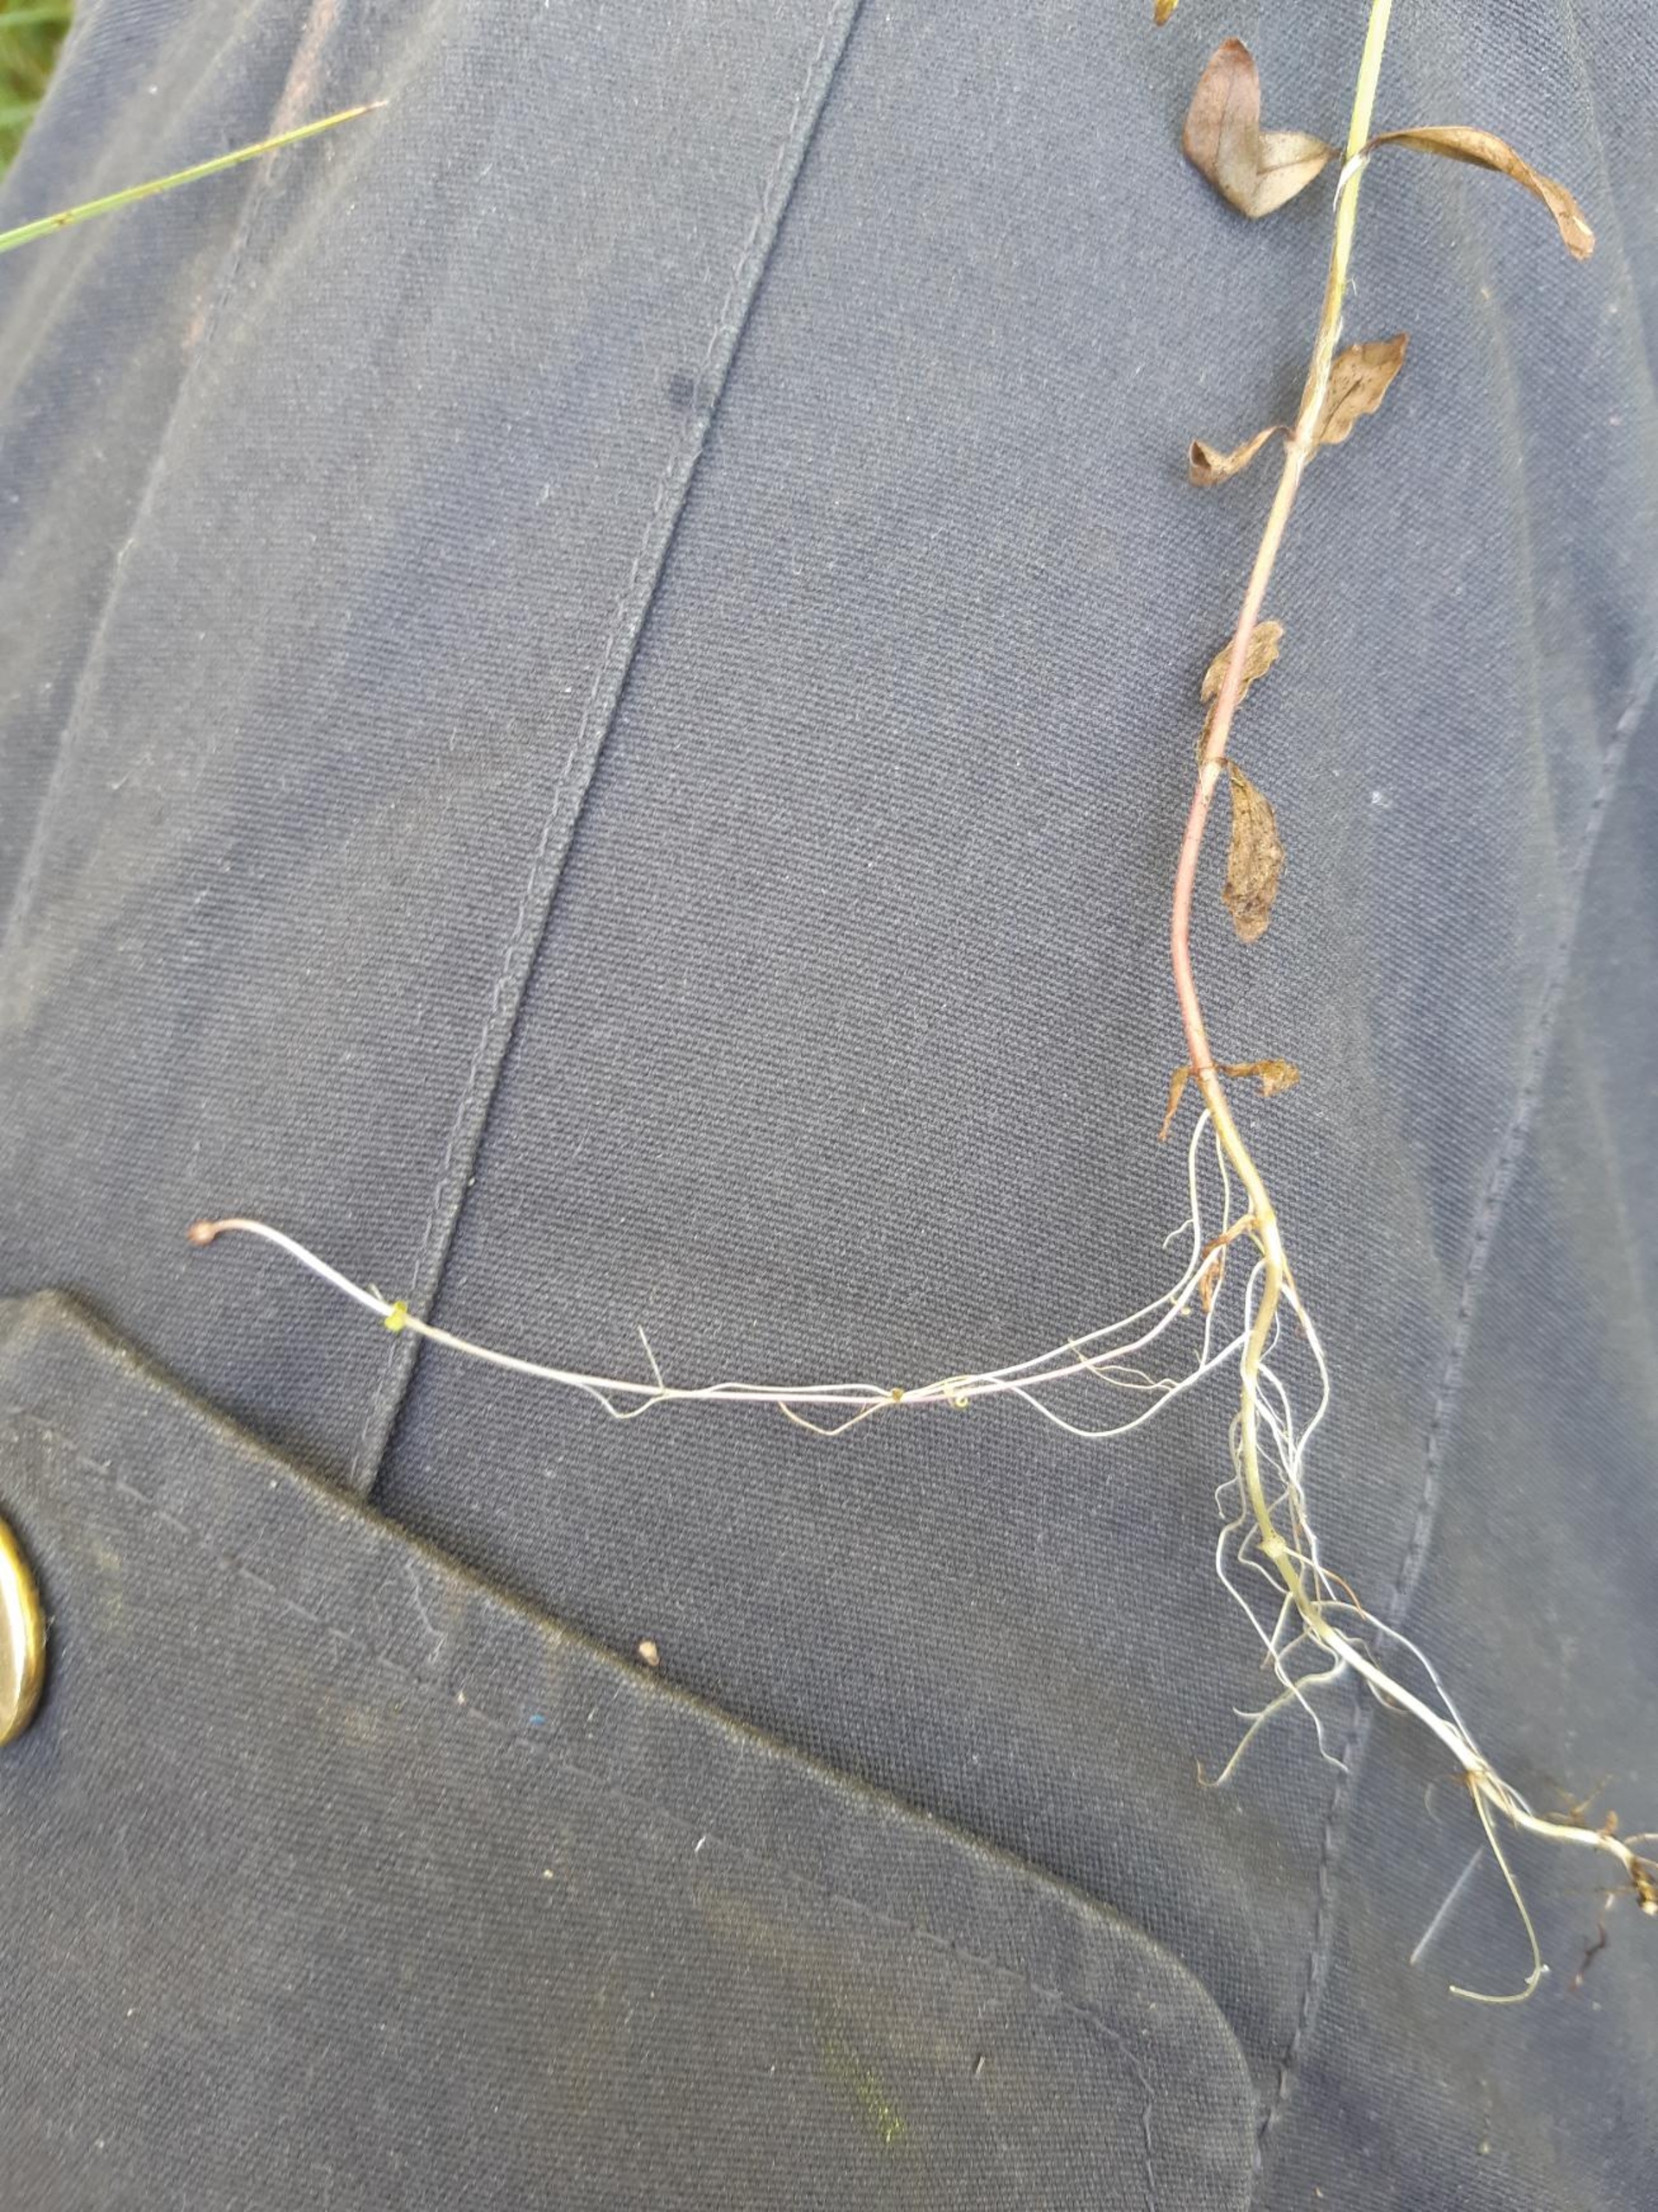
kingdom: Plantae
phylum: Tracheophyta
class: Magnoliopsida
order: Myrtales
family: Onagraceae
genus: Epilobium
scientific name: Epilobium palustre
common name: Kær-dueurt
